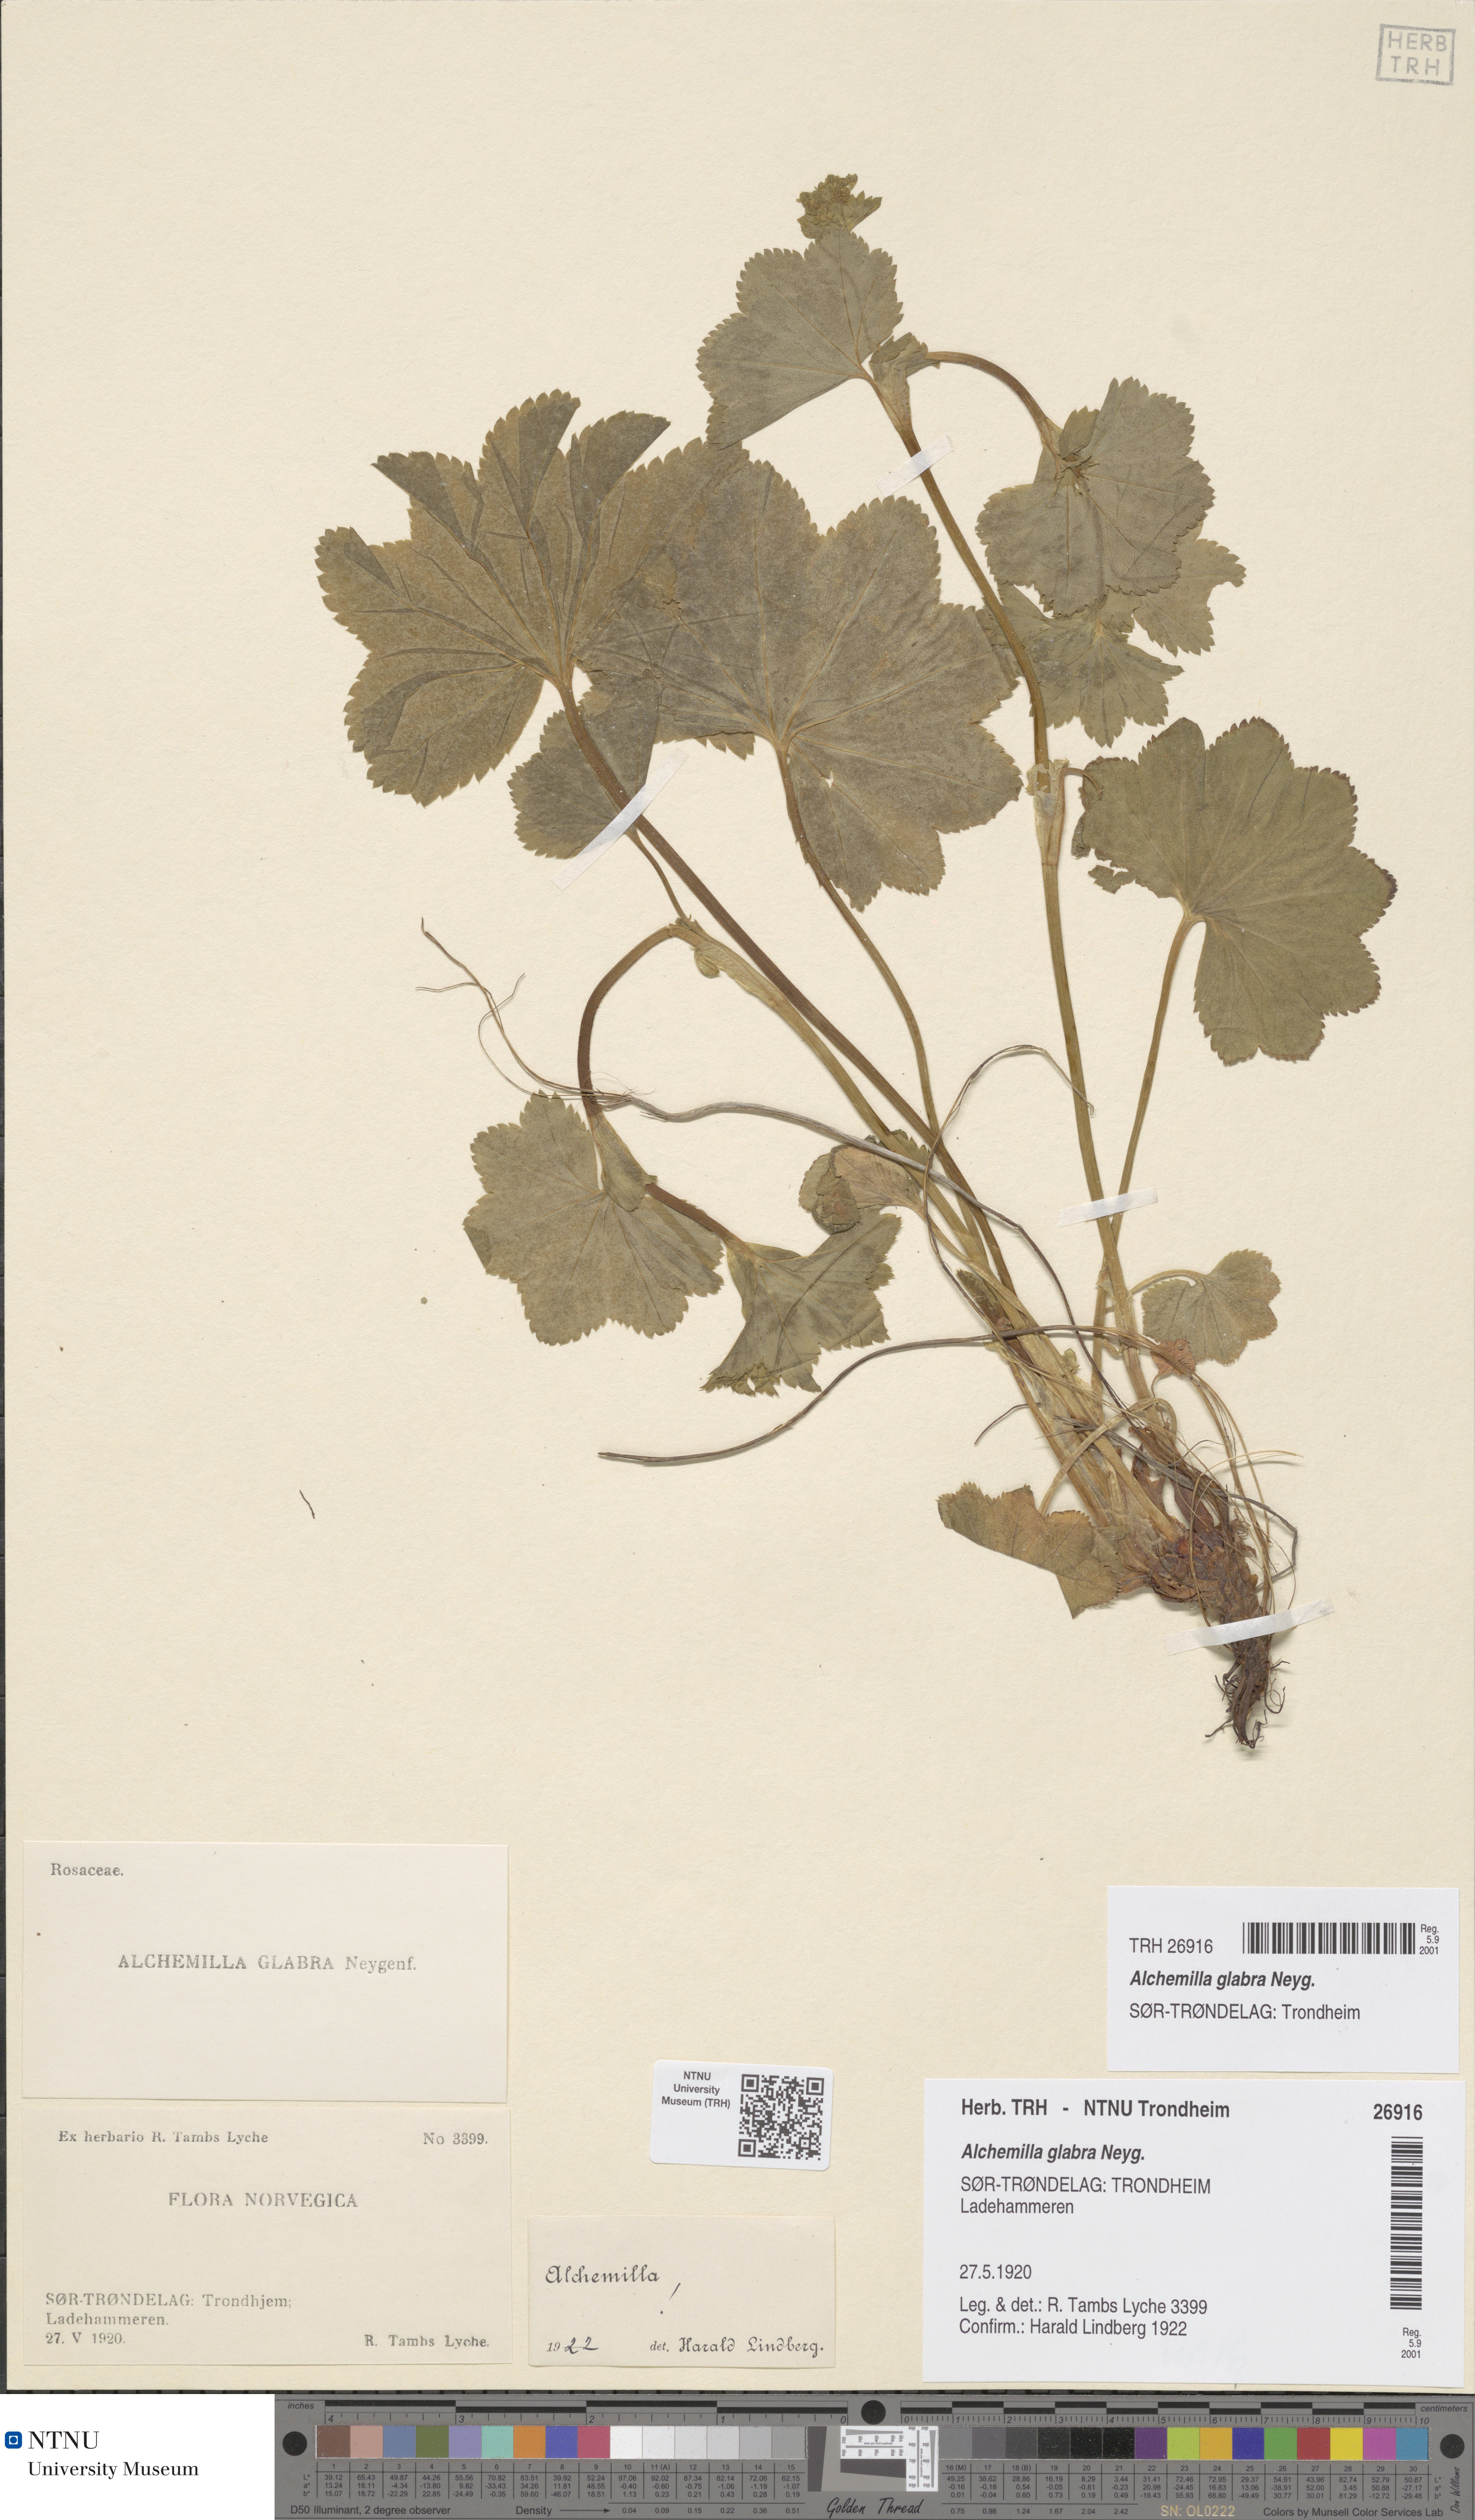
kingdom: Plantae
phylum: Tracheophyta
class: Magnoliopsida
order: Rosales
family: Rosaceae
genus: Alchemilla
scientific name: Alchemilla glabra
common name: Smooth lady's-mantle
